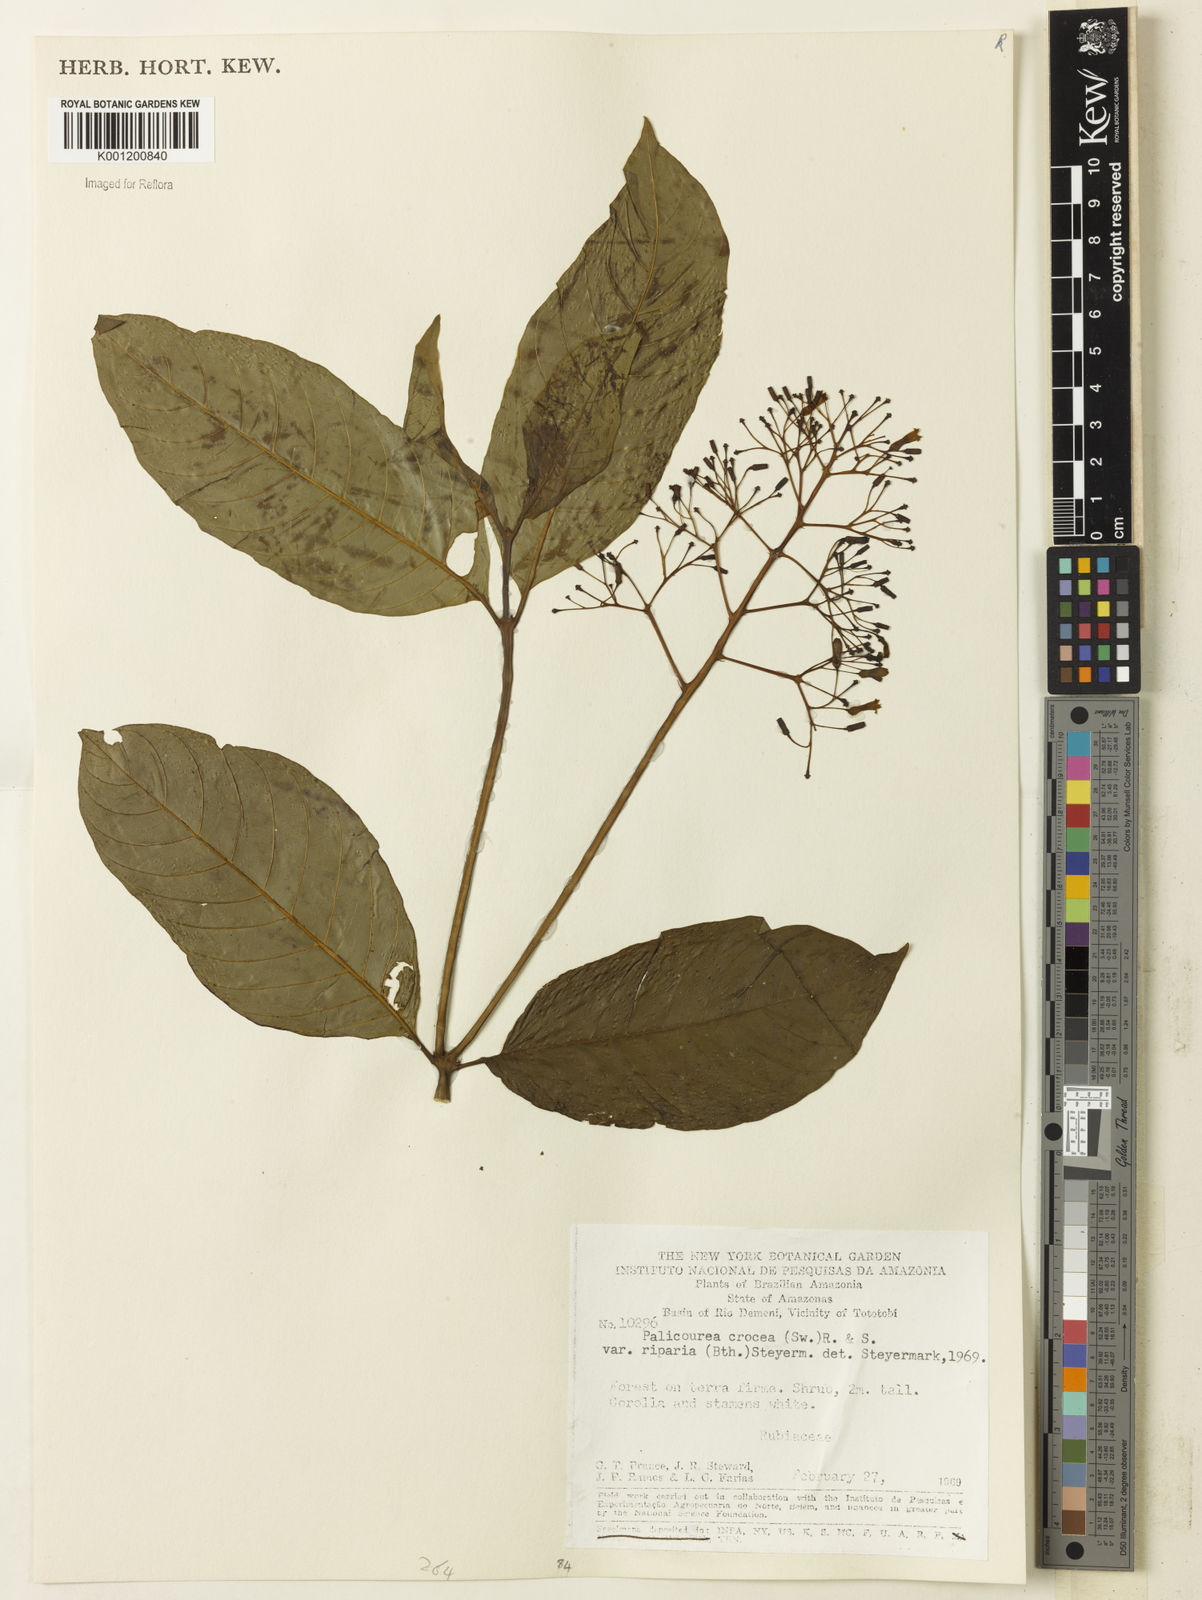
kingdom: Plantae
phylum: Tracheophyta
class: Magnoliopsida
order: Gentianales
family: Rubiaceae
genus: Palicourea
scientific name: Palicourea croceoides
